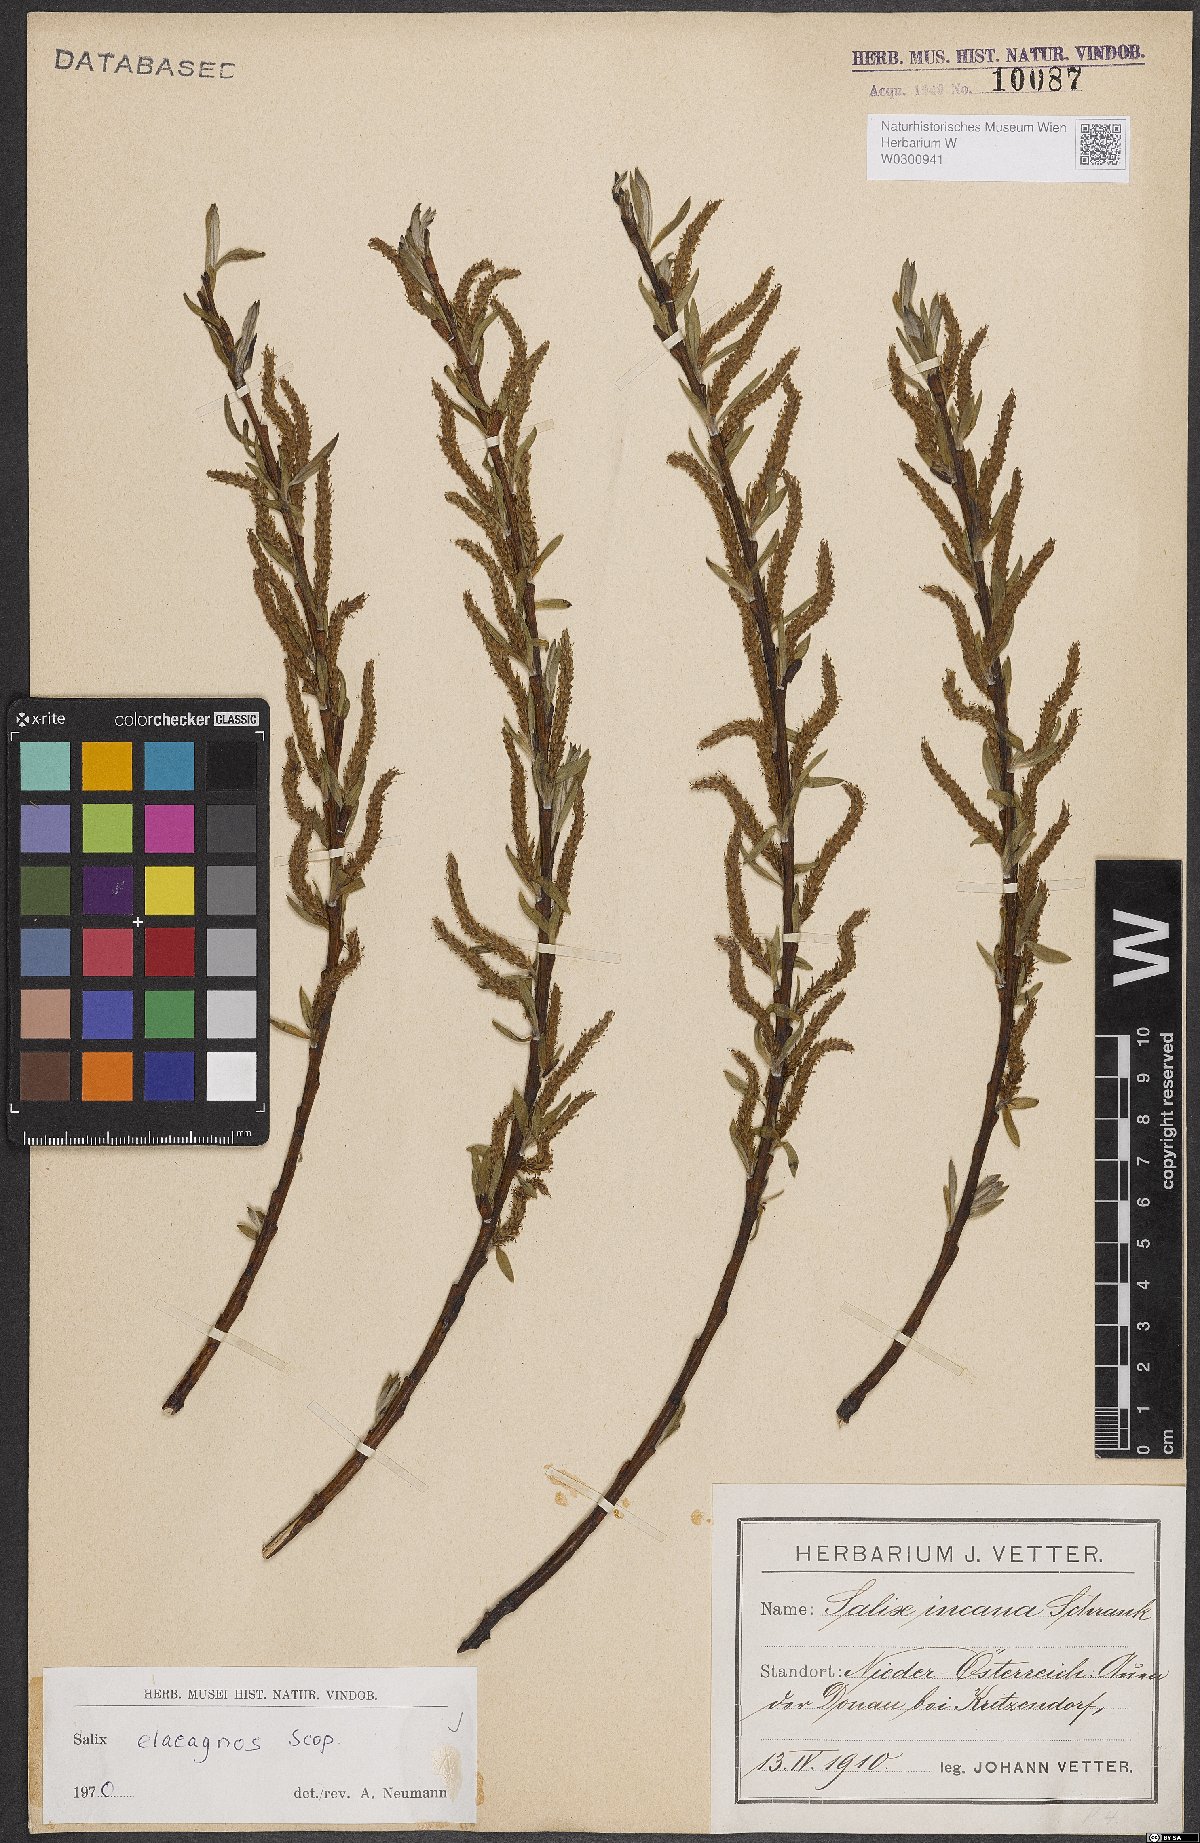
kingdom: Plantae
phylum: Tracheophyta
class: Magnoliopsida
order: Malpighiales
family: Salicaceae
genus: Salix
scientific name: Salix eleagnos
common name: Elaeagnus willow
